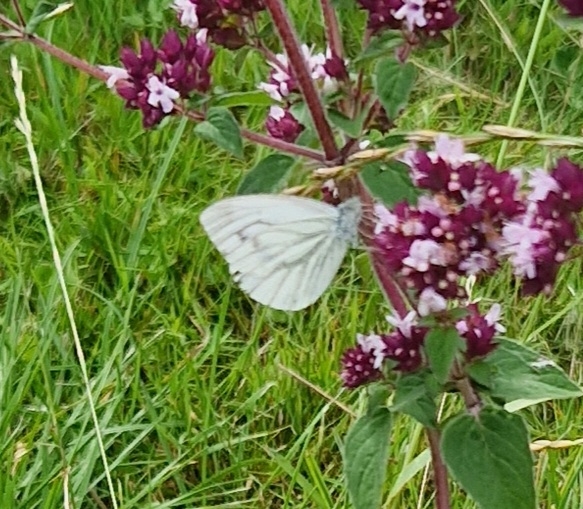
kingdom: Animalia
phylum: Arthropoda
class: Insecta
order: Lepidoptera
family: Pieridae
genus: Pieris
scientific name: Pieris napi
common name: Grønåret kålsommerfugl
